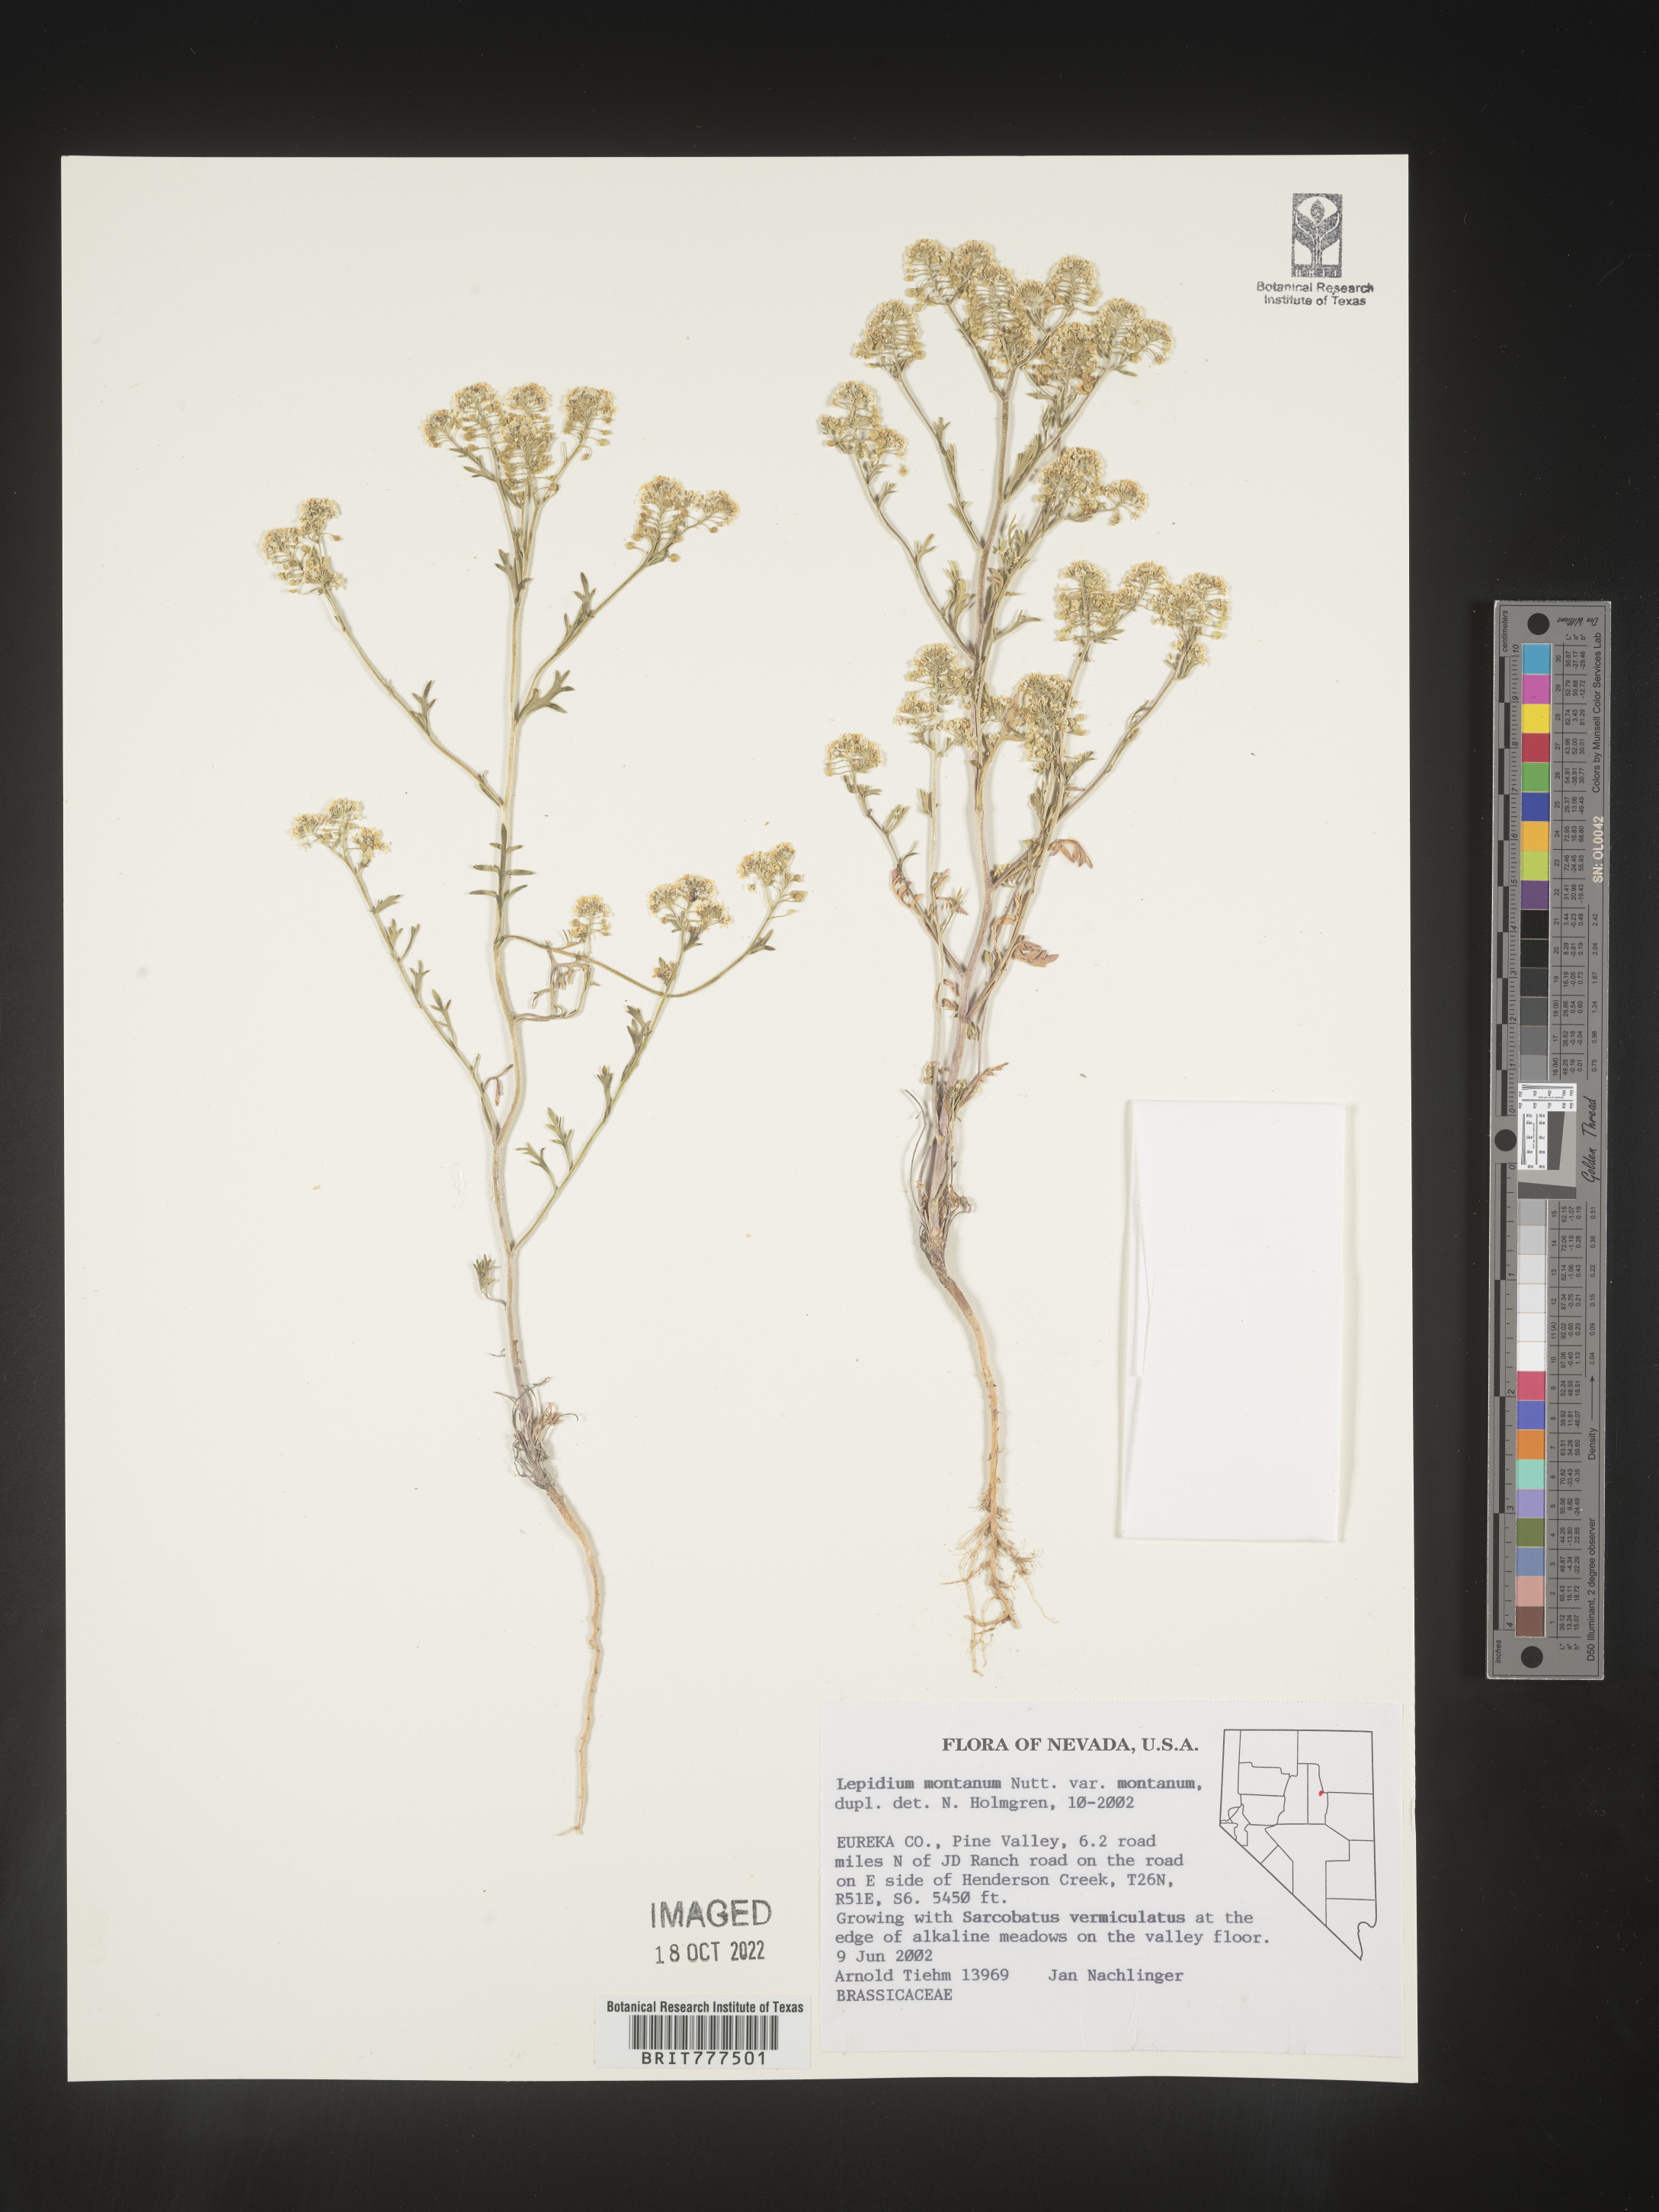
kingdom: Plantae
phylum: Tracheophyta
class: Magnoliopsida
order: Brassicales
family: Brassicaceae
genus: Lepidium
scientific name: Lepidium montanum
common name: Mountain pepperplant
